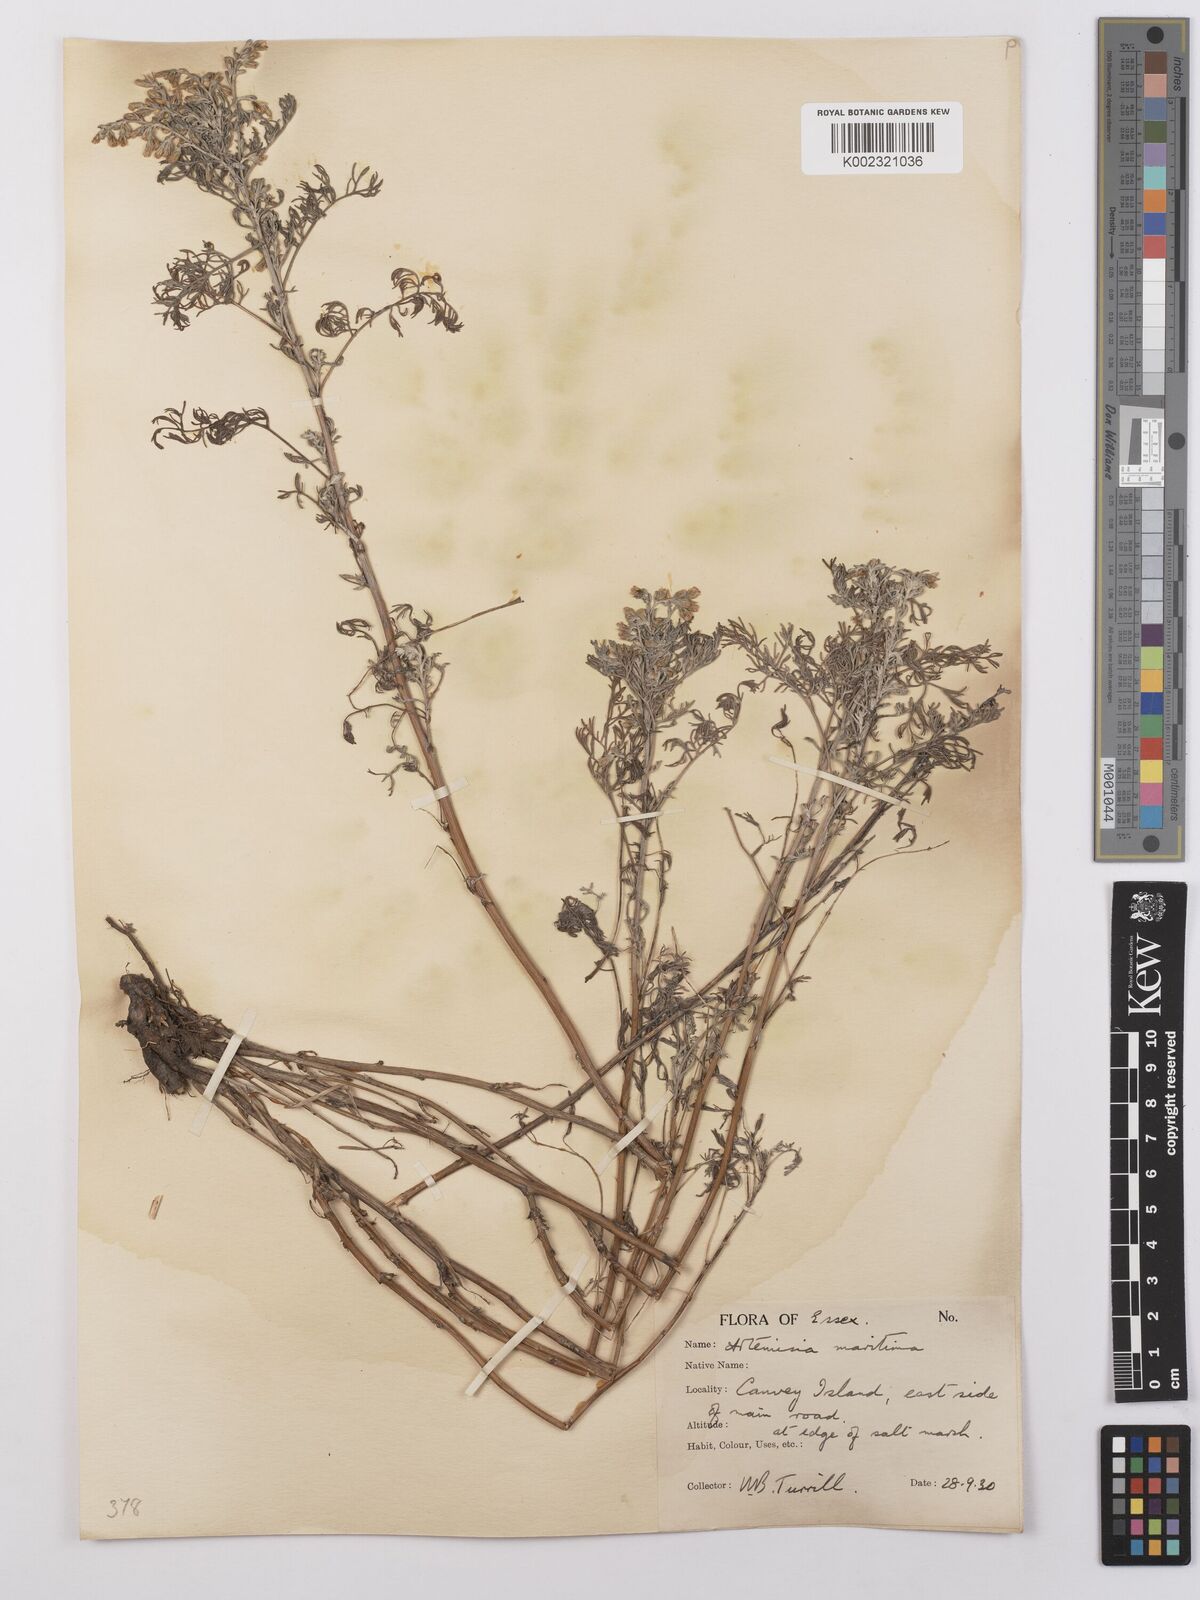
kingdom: Plantae
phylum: Tracheophyta
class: Magnoliopsida
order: Asterales
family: Asteraceae
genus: Artemisia
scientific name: Artemisia maritima
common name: Wormseed
